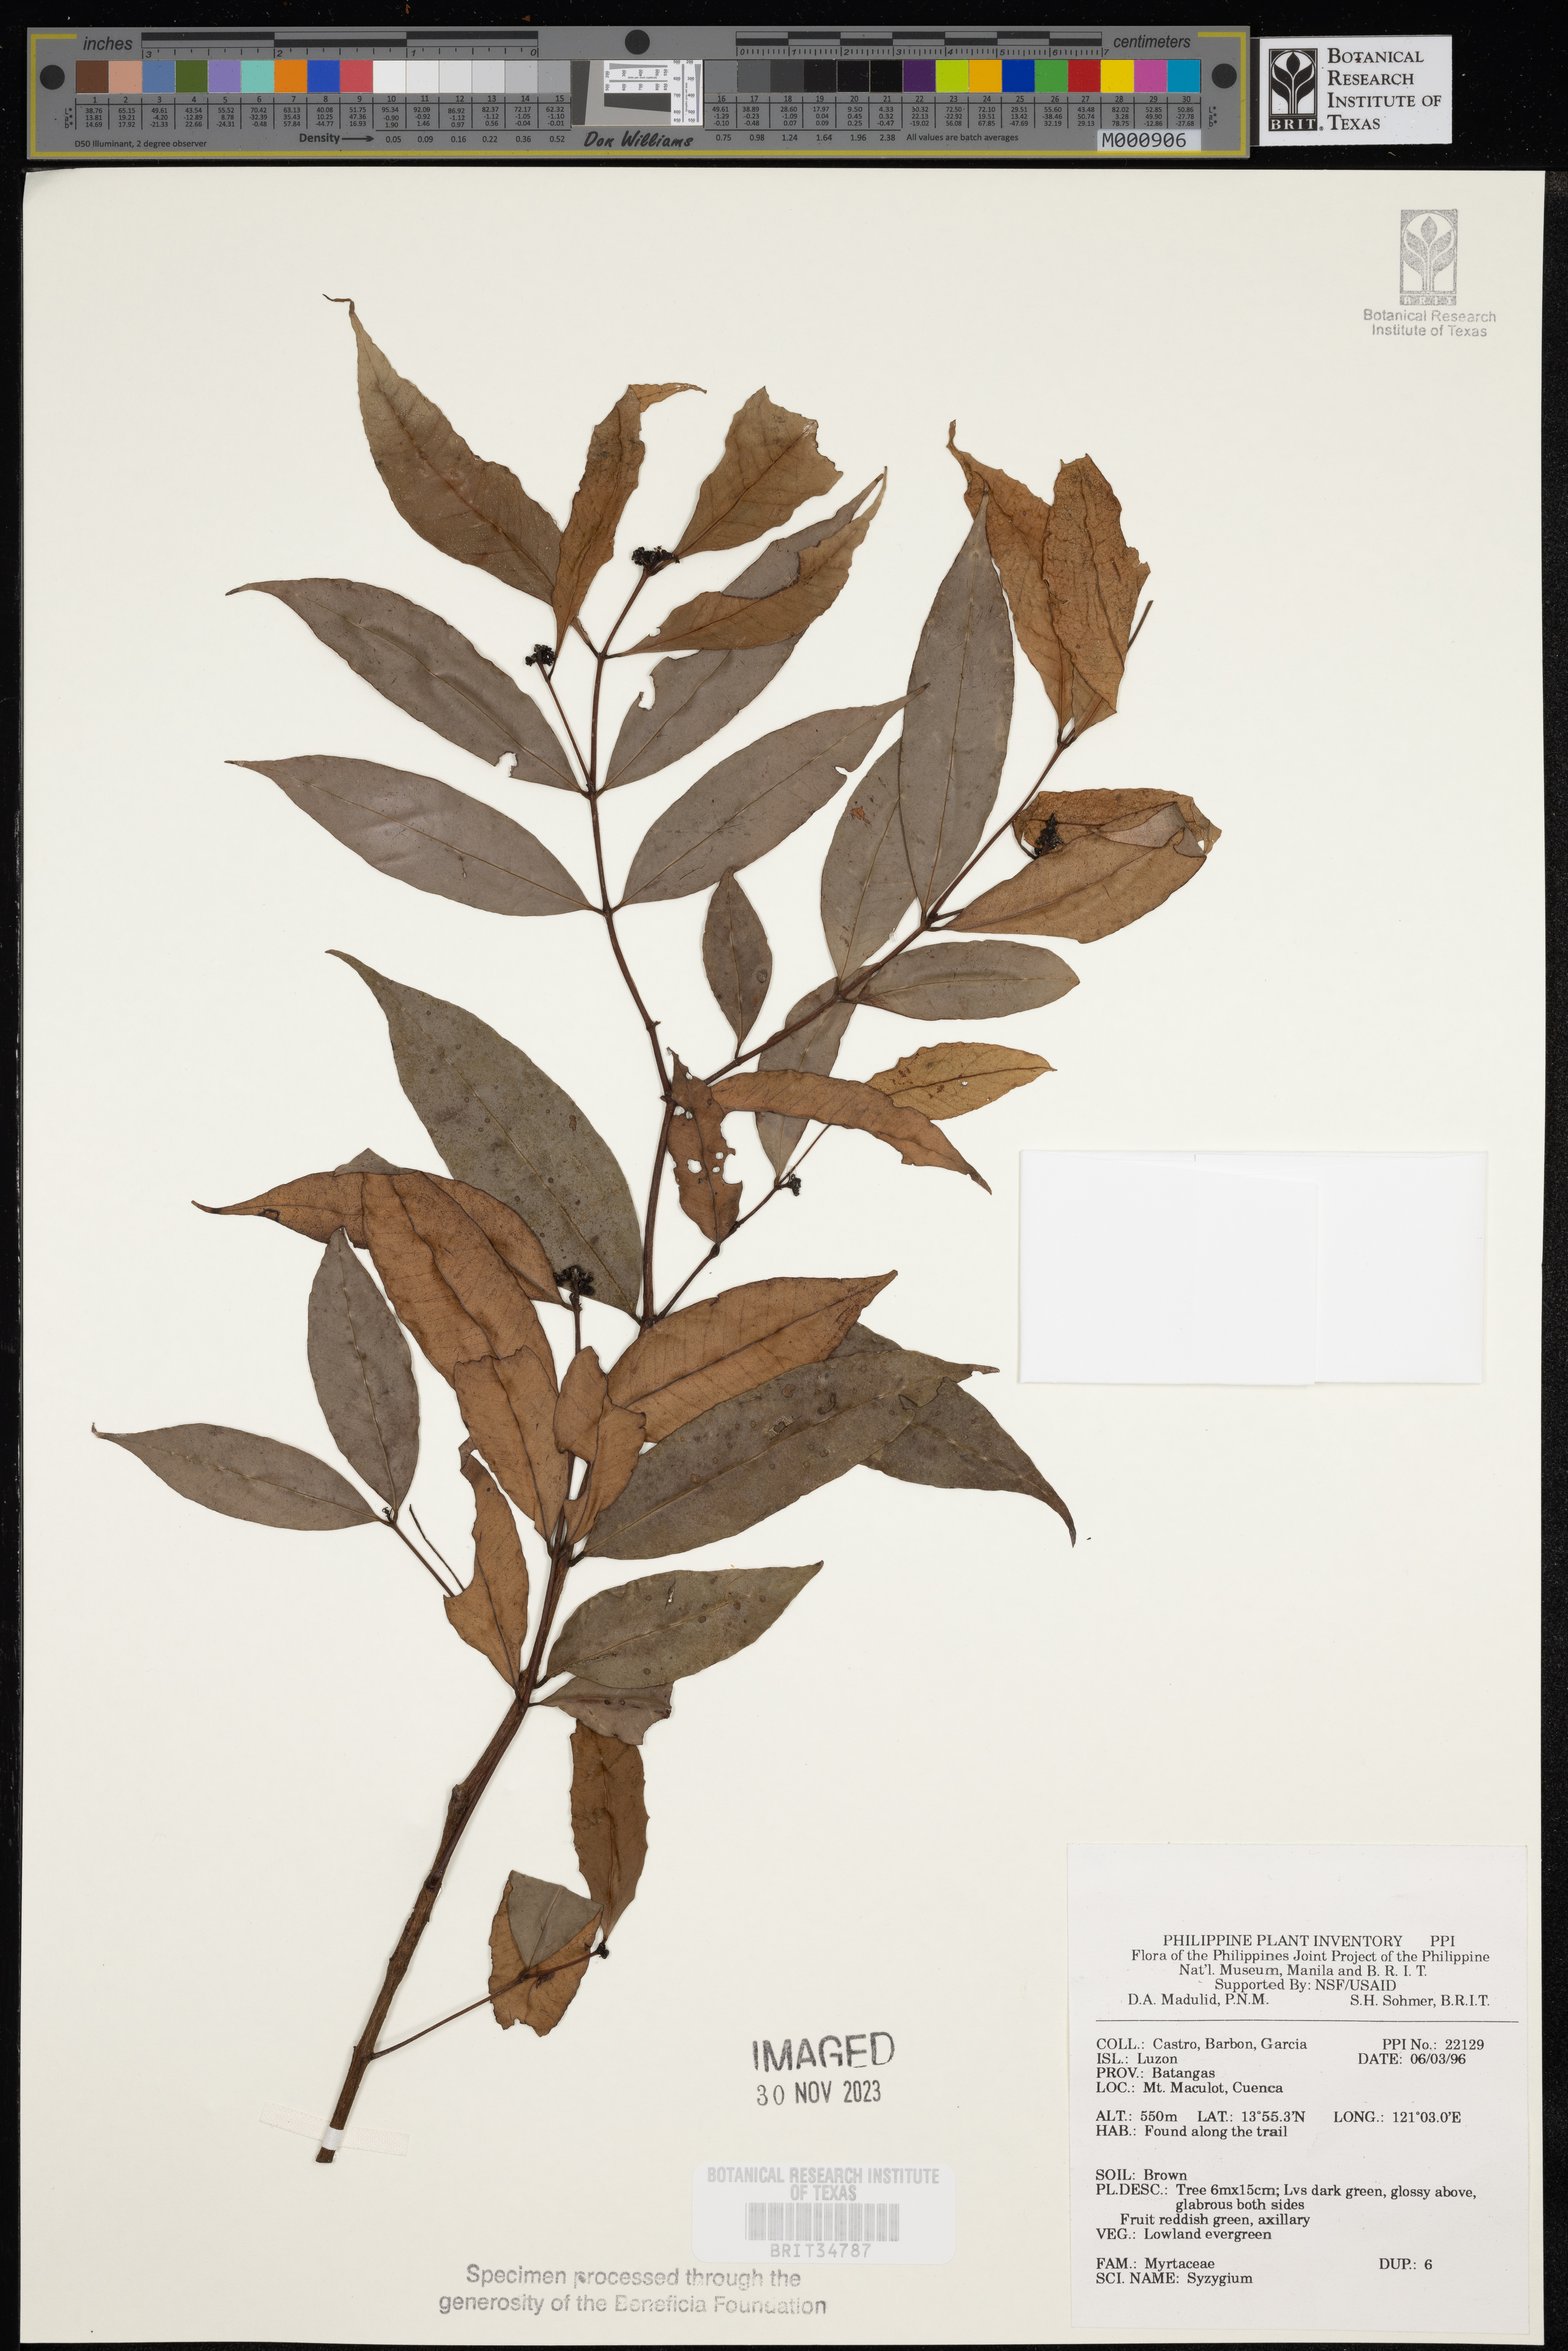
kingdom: Plantae
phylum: Tracheophyta
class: Magnoliopsida
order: Myrtales
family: Myrtaceae
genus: Syzygium
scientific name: Syzygium
